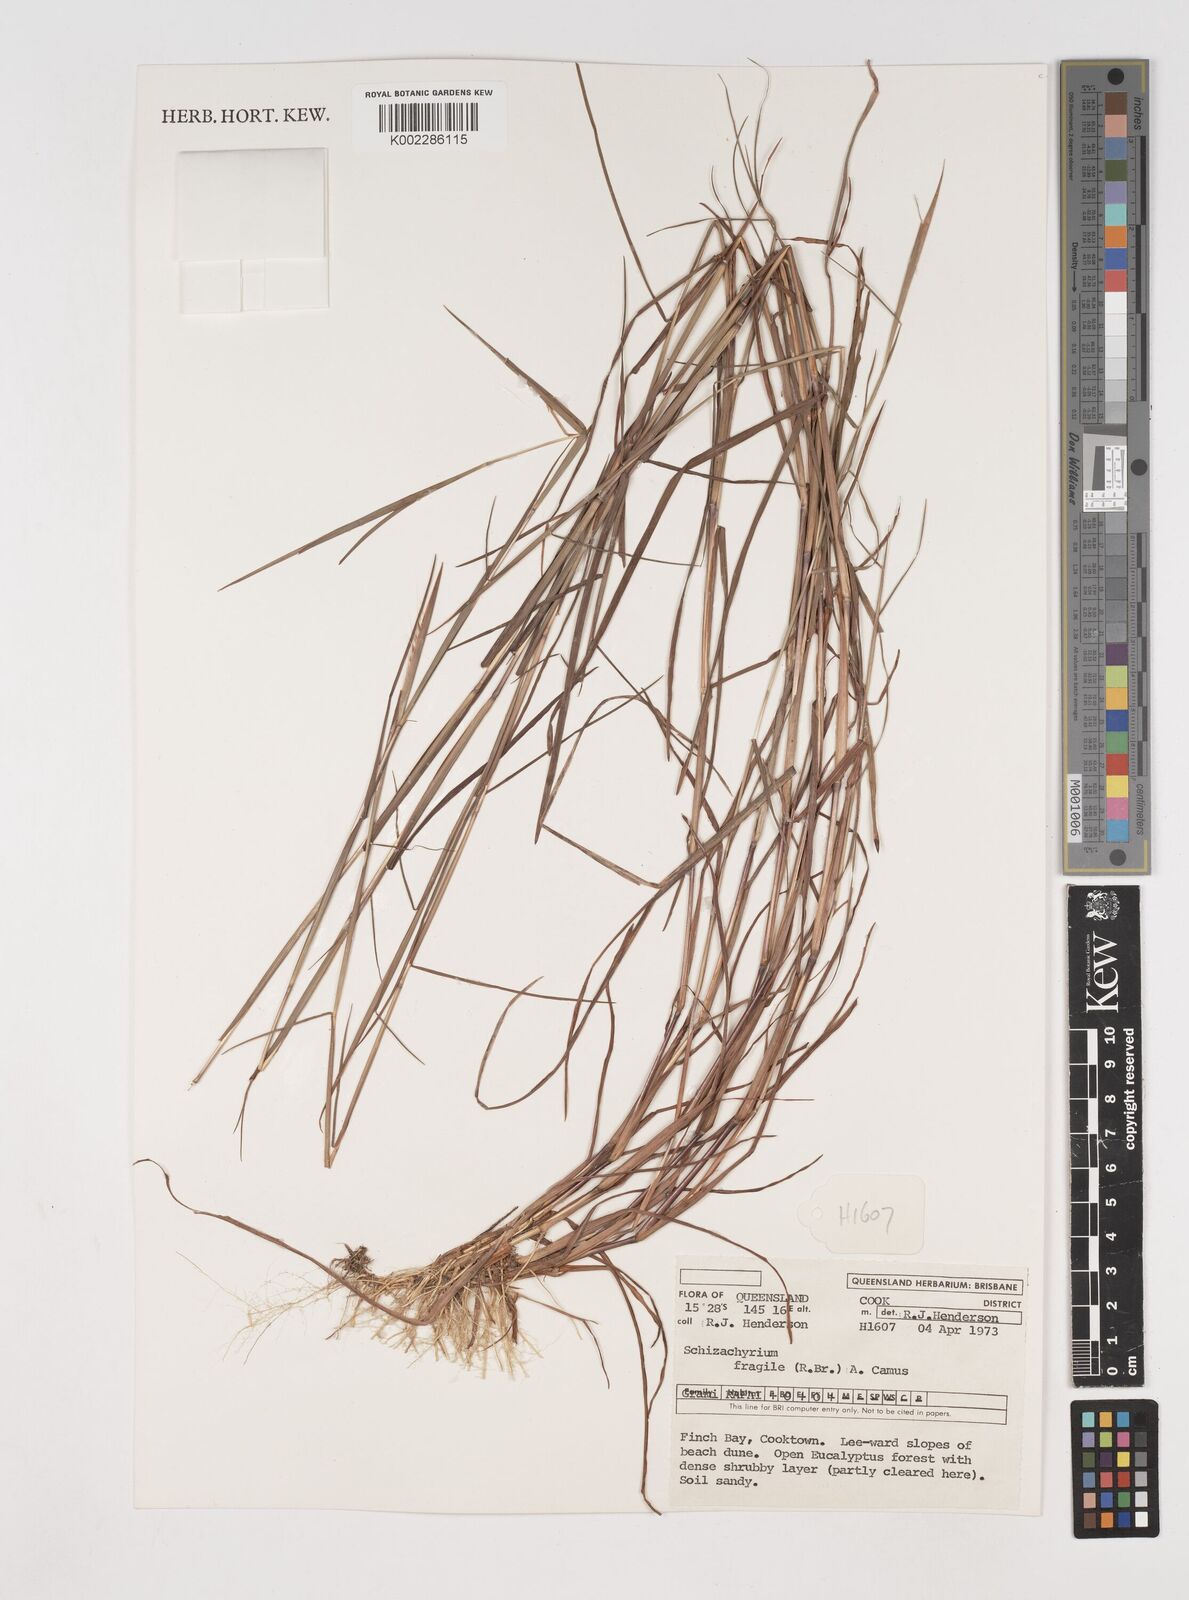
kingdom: Plantae
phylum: Tracheophyta
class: Liliopsida
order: Poales
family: Poaceae
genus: Schizachyrium
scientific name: Schizachyrium fragile
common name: Red spathe grass
